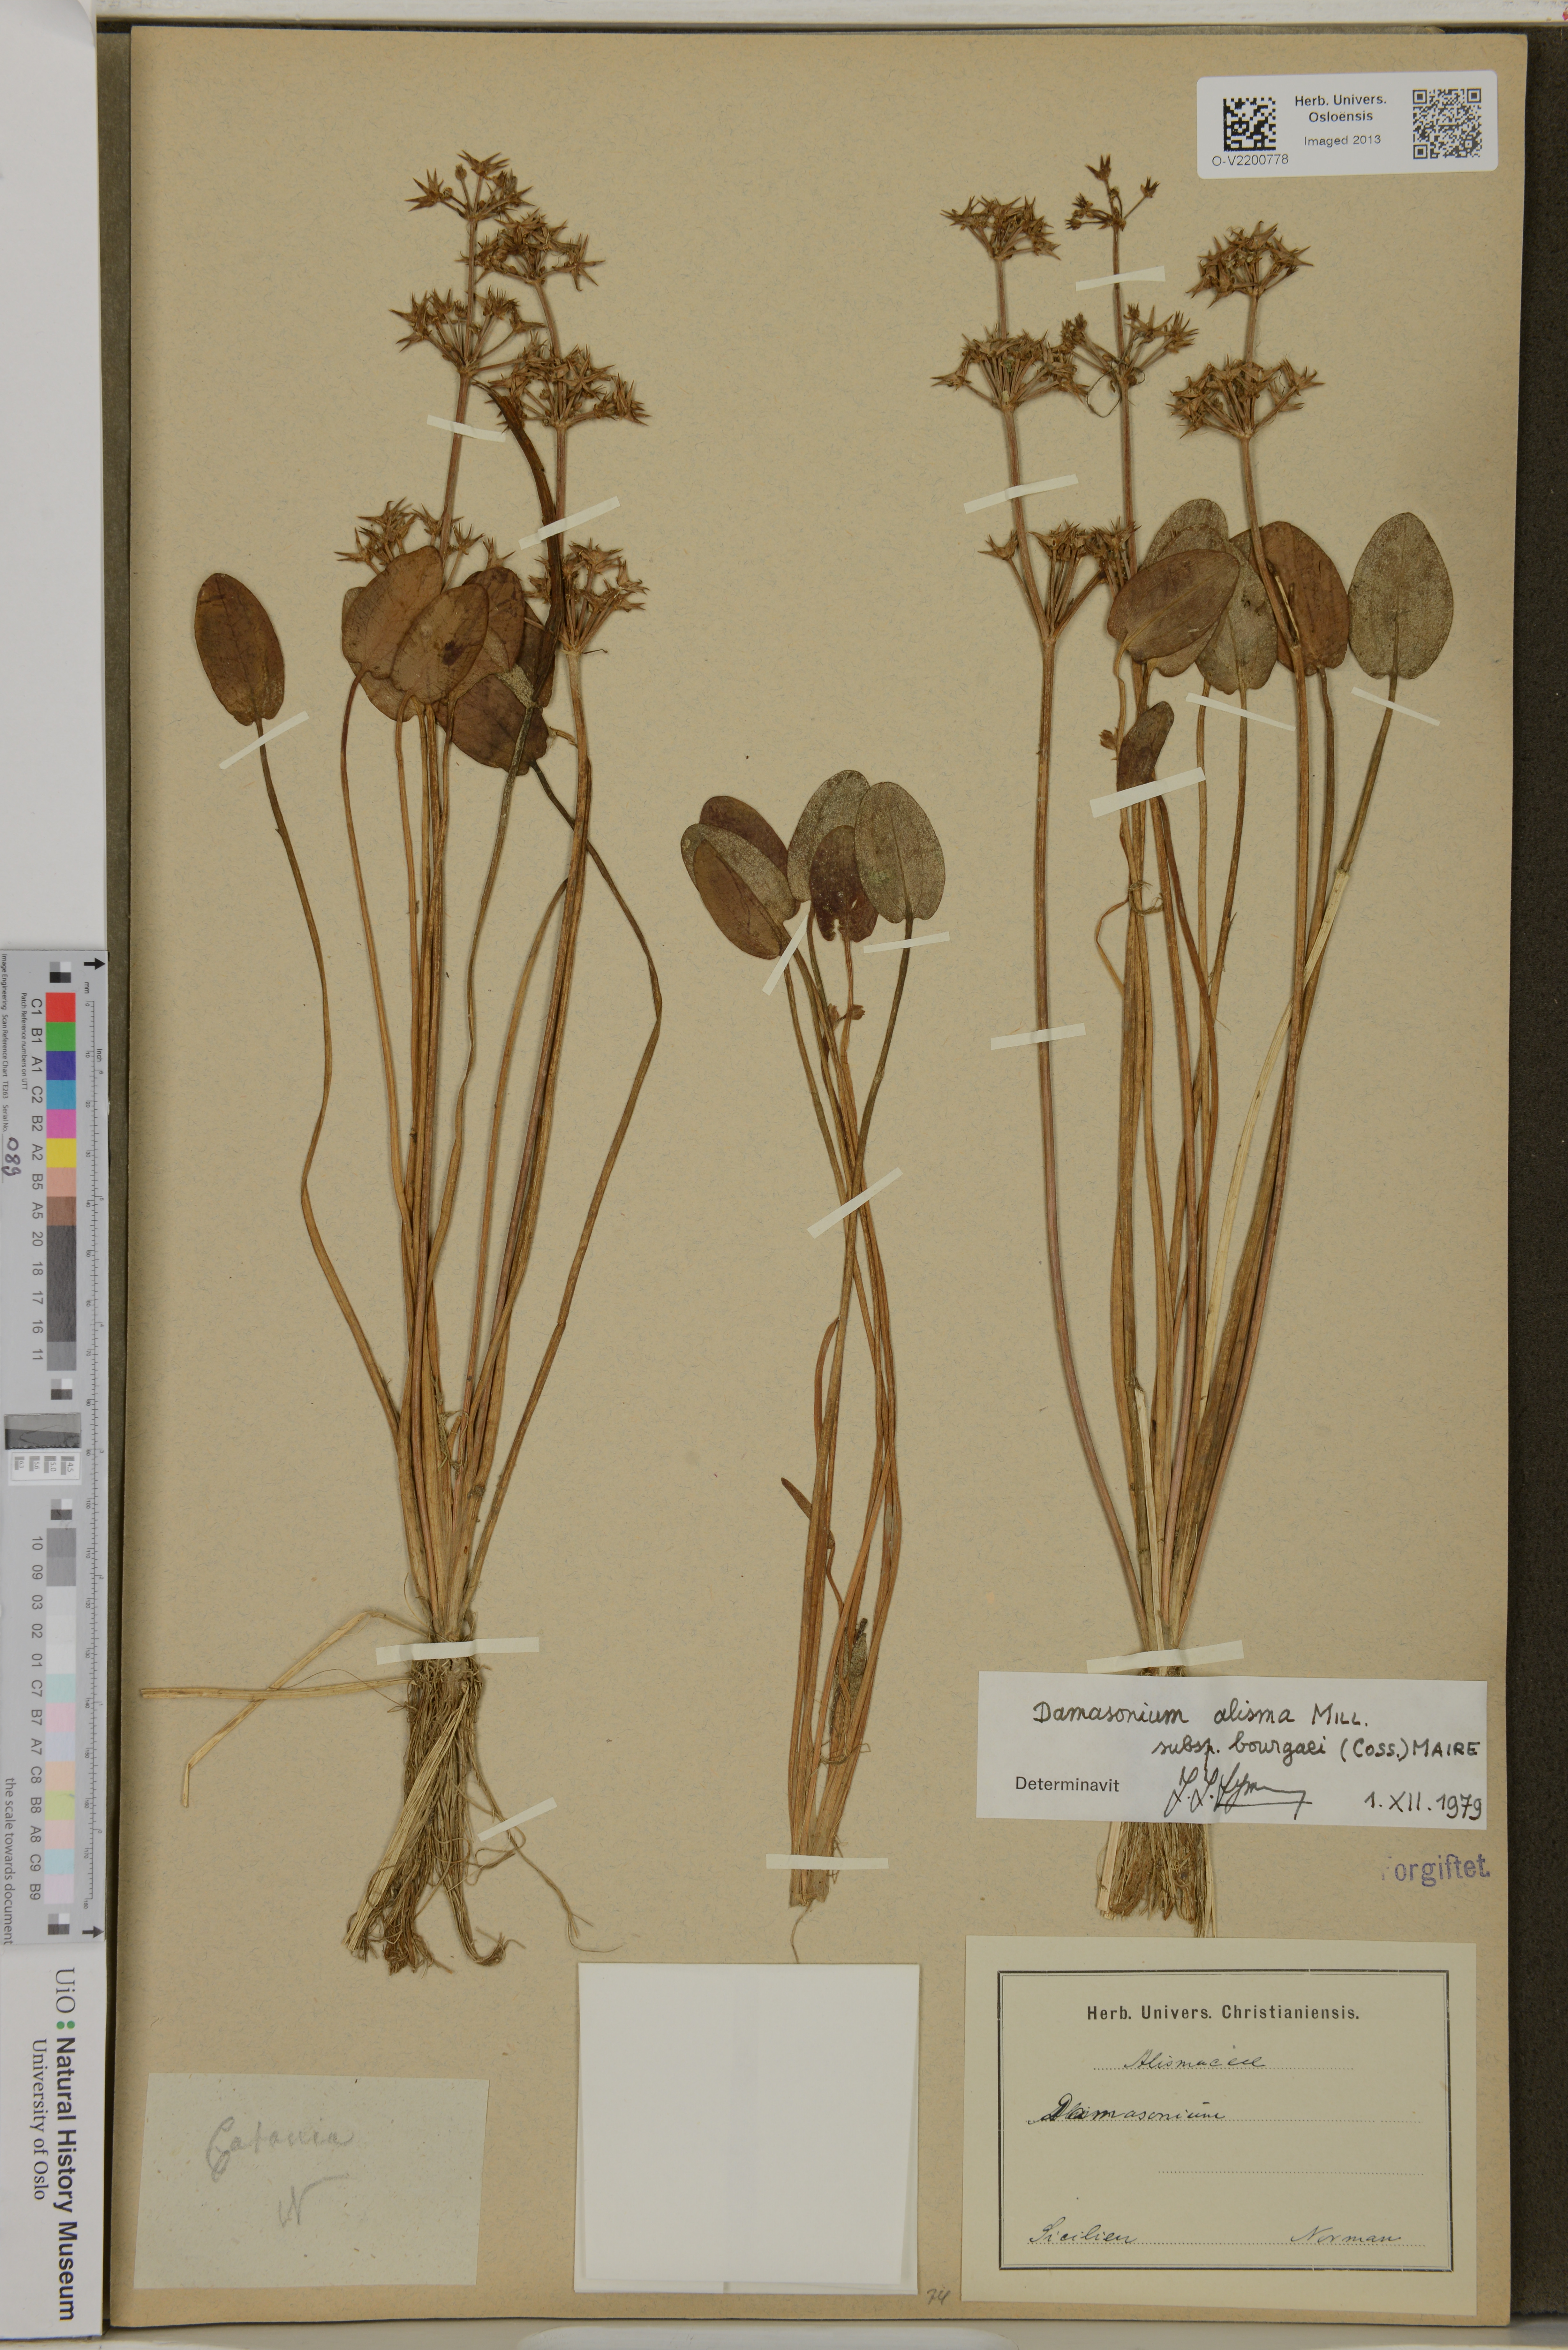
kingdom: Plantae
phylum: Tracheophyta
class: Liliopsida
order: Alismatales
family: Alismataceae
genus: Damasonium
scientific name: Damasonium alisma
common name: Starfruit
